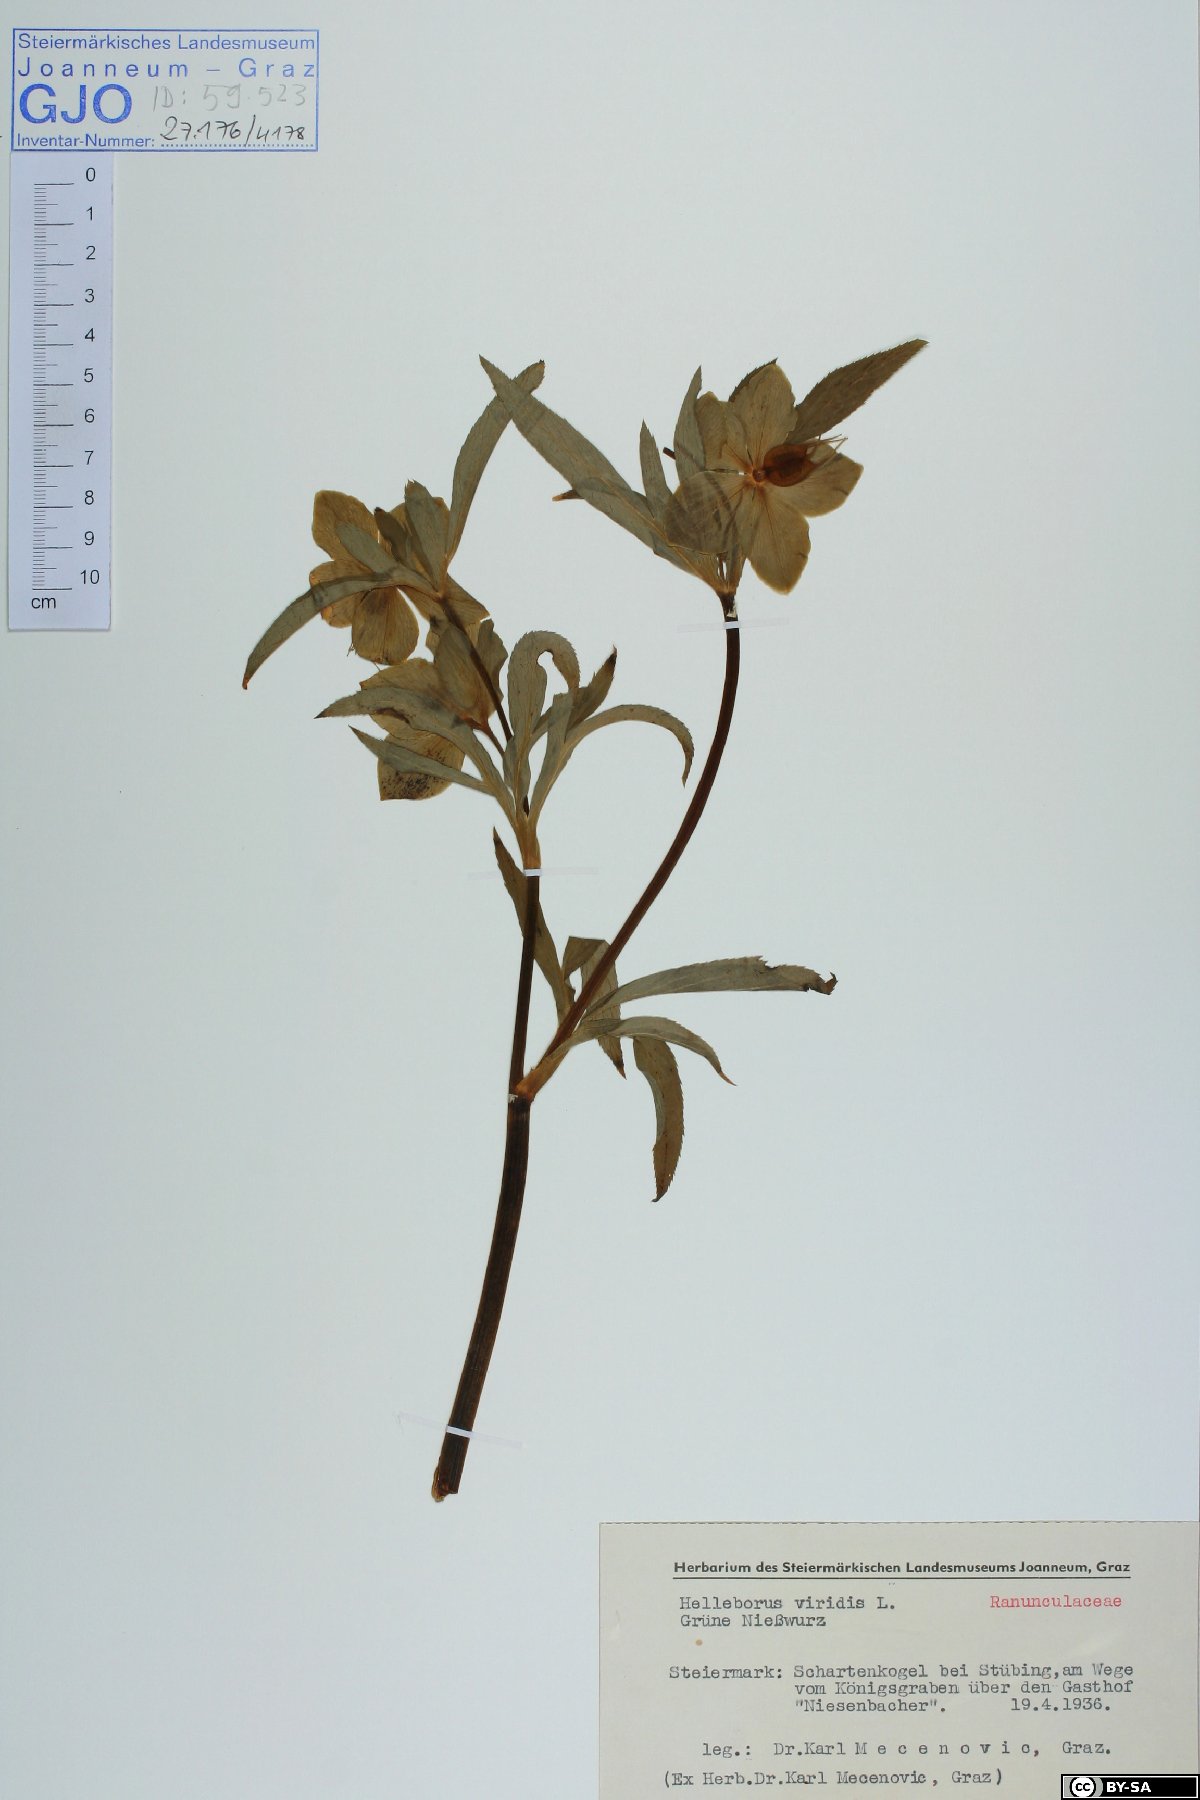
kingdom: Plantae
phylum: Tracheophyta
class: Magnoliopsida
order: Ranunculales
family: Ranunculaceae
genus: Helleborus
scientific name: Helleborus viridis
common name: Green hellebore
